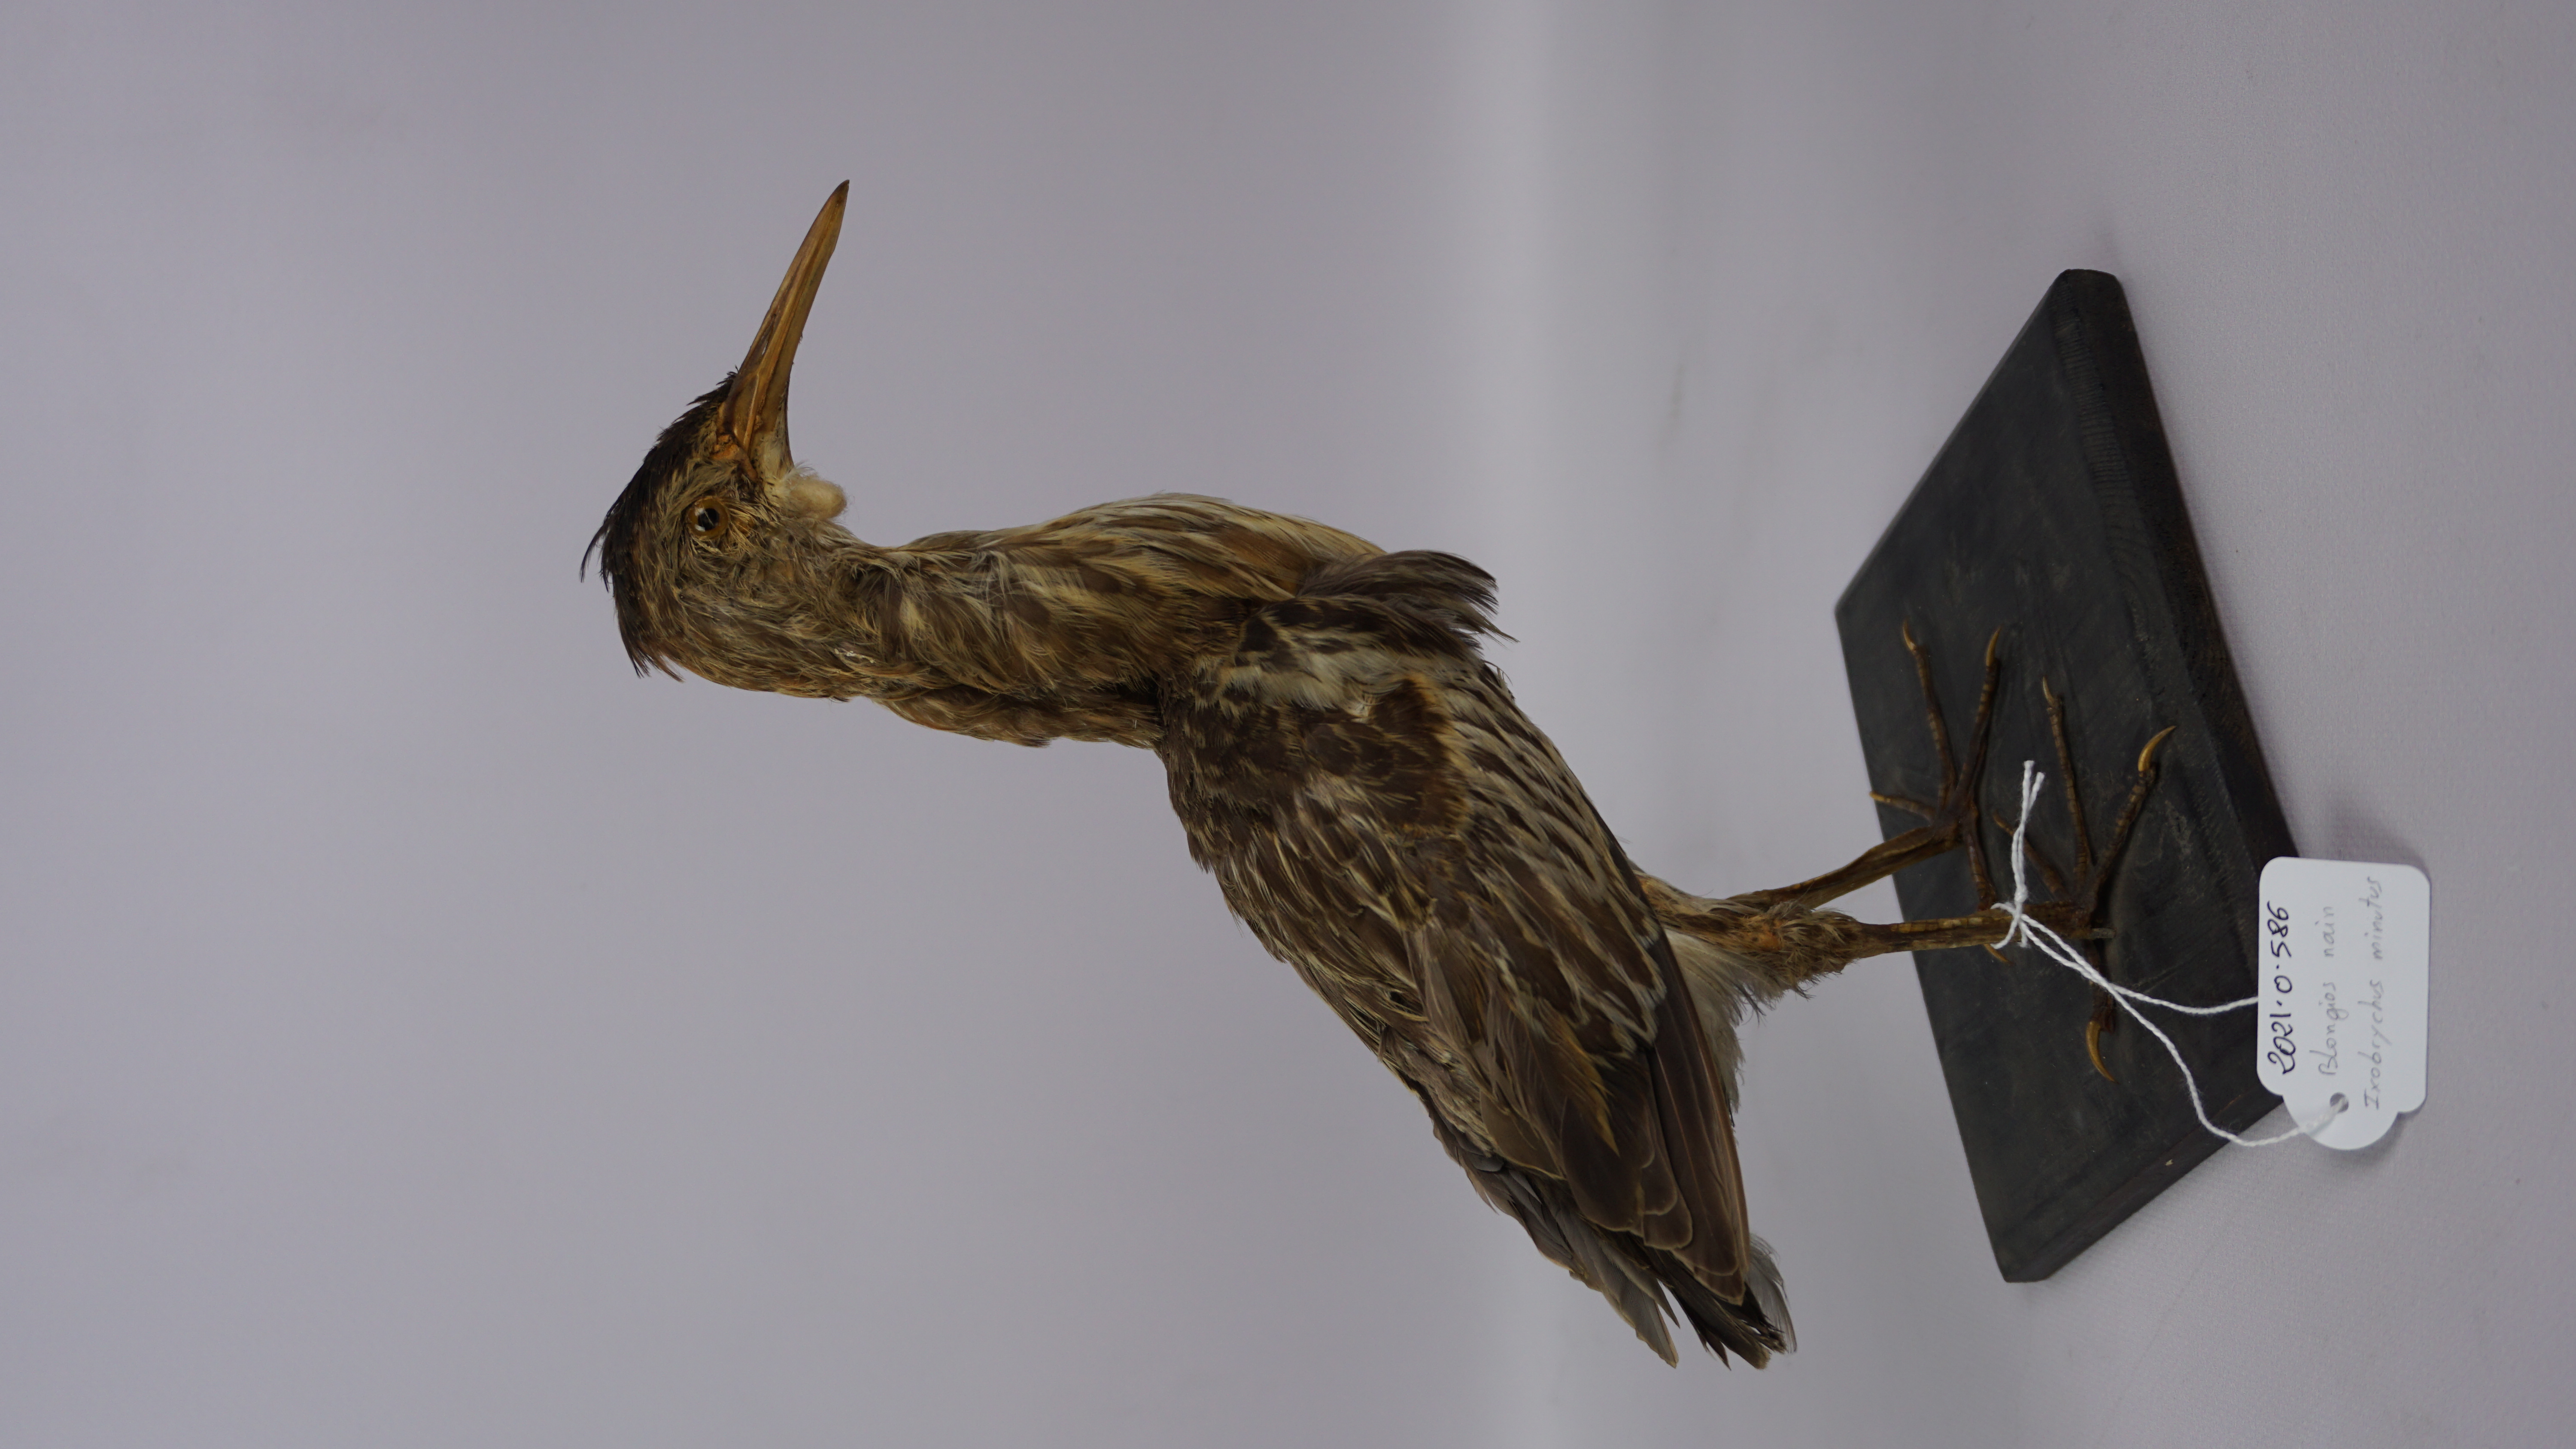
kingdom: Animalia
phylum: Chordata
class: Aves
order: Pelecaniformes
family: Ardeidae
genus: Ixobrychus
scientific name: Ixobrychus minutus
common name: Little bittern
